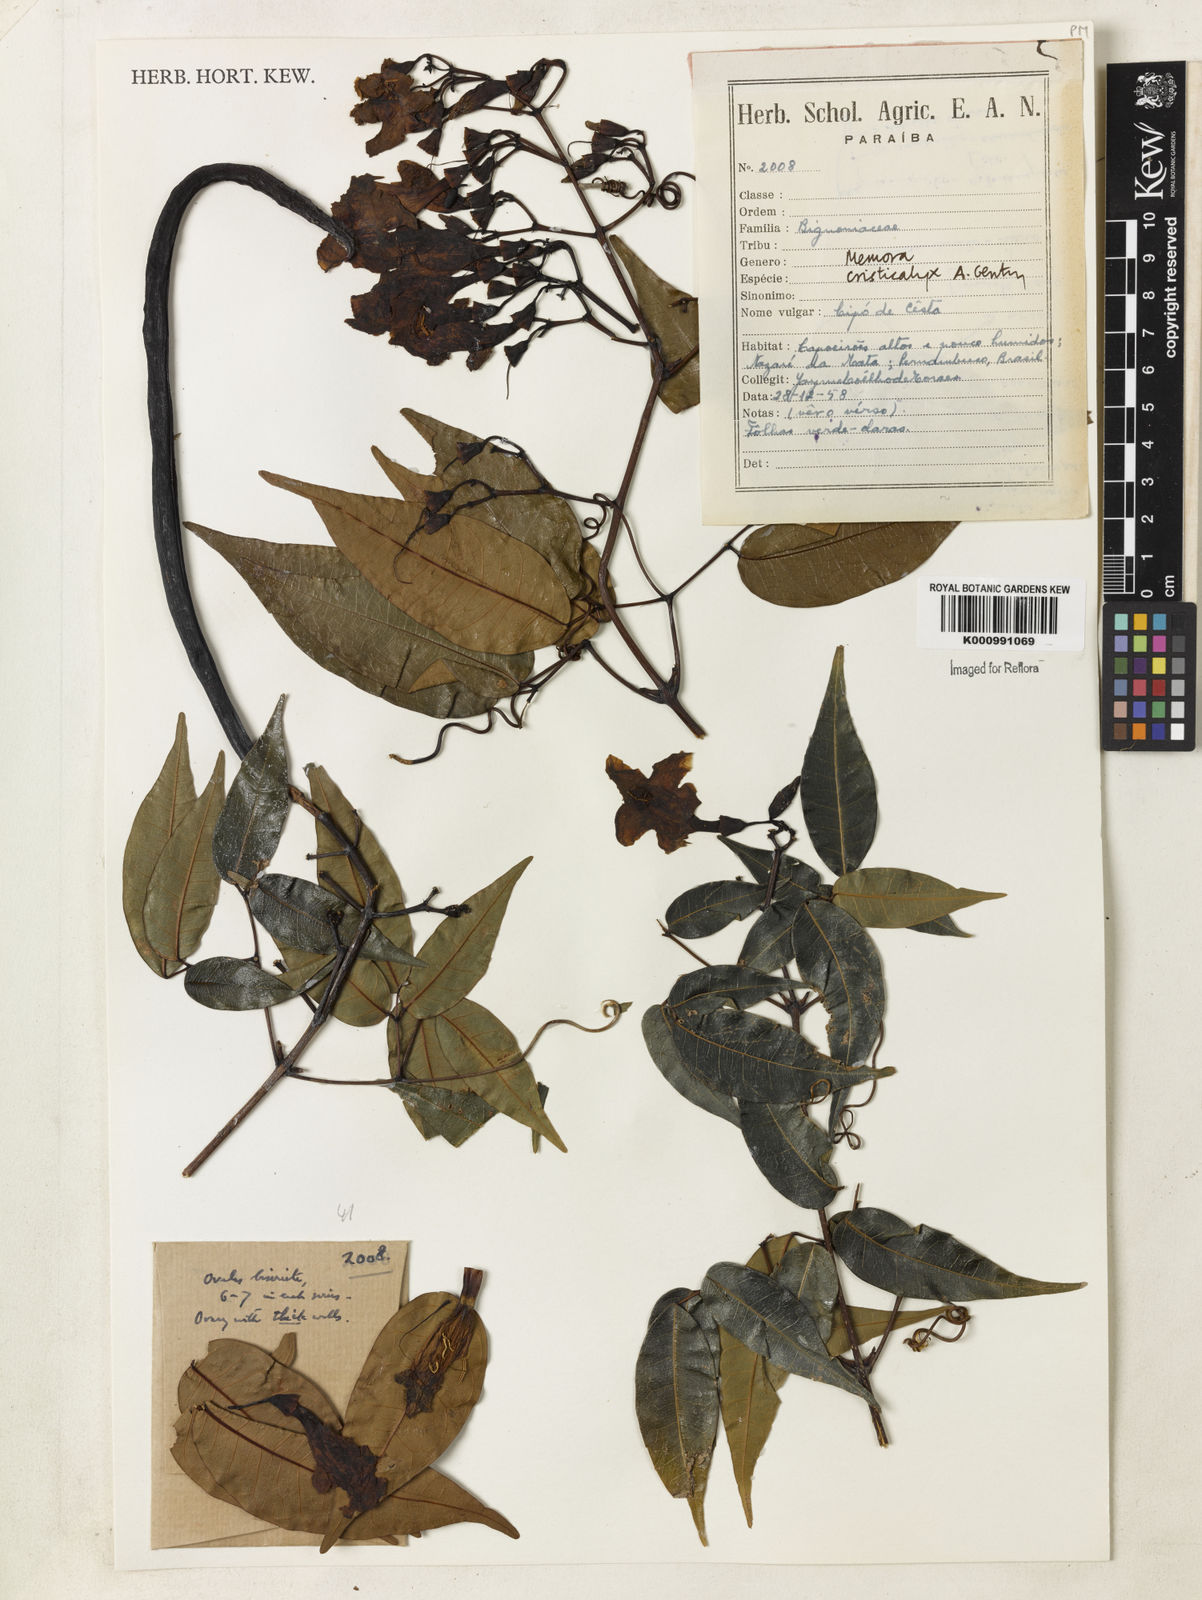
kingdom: Plantae
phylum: Tracheophyta
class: Magnoliopsida
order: Lamiales
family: Bignoniaceae
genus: Adenocalymma
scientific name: Adenocalymma cristicalyx
